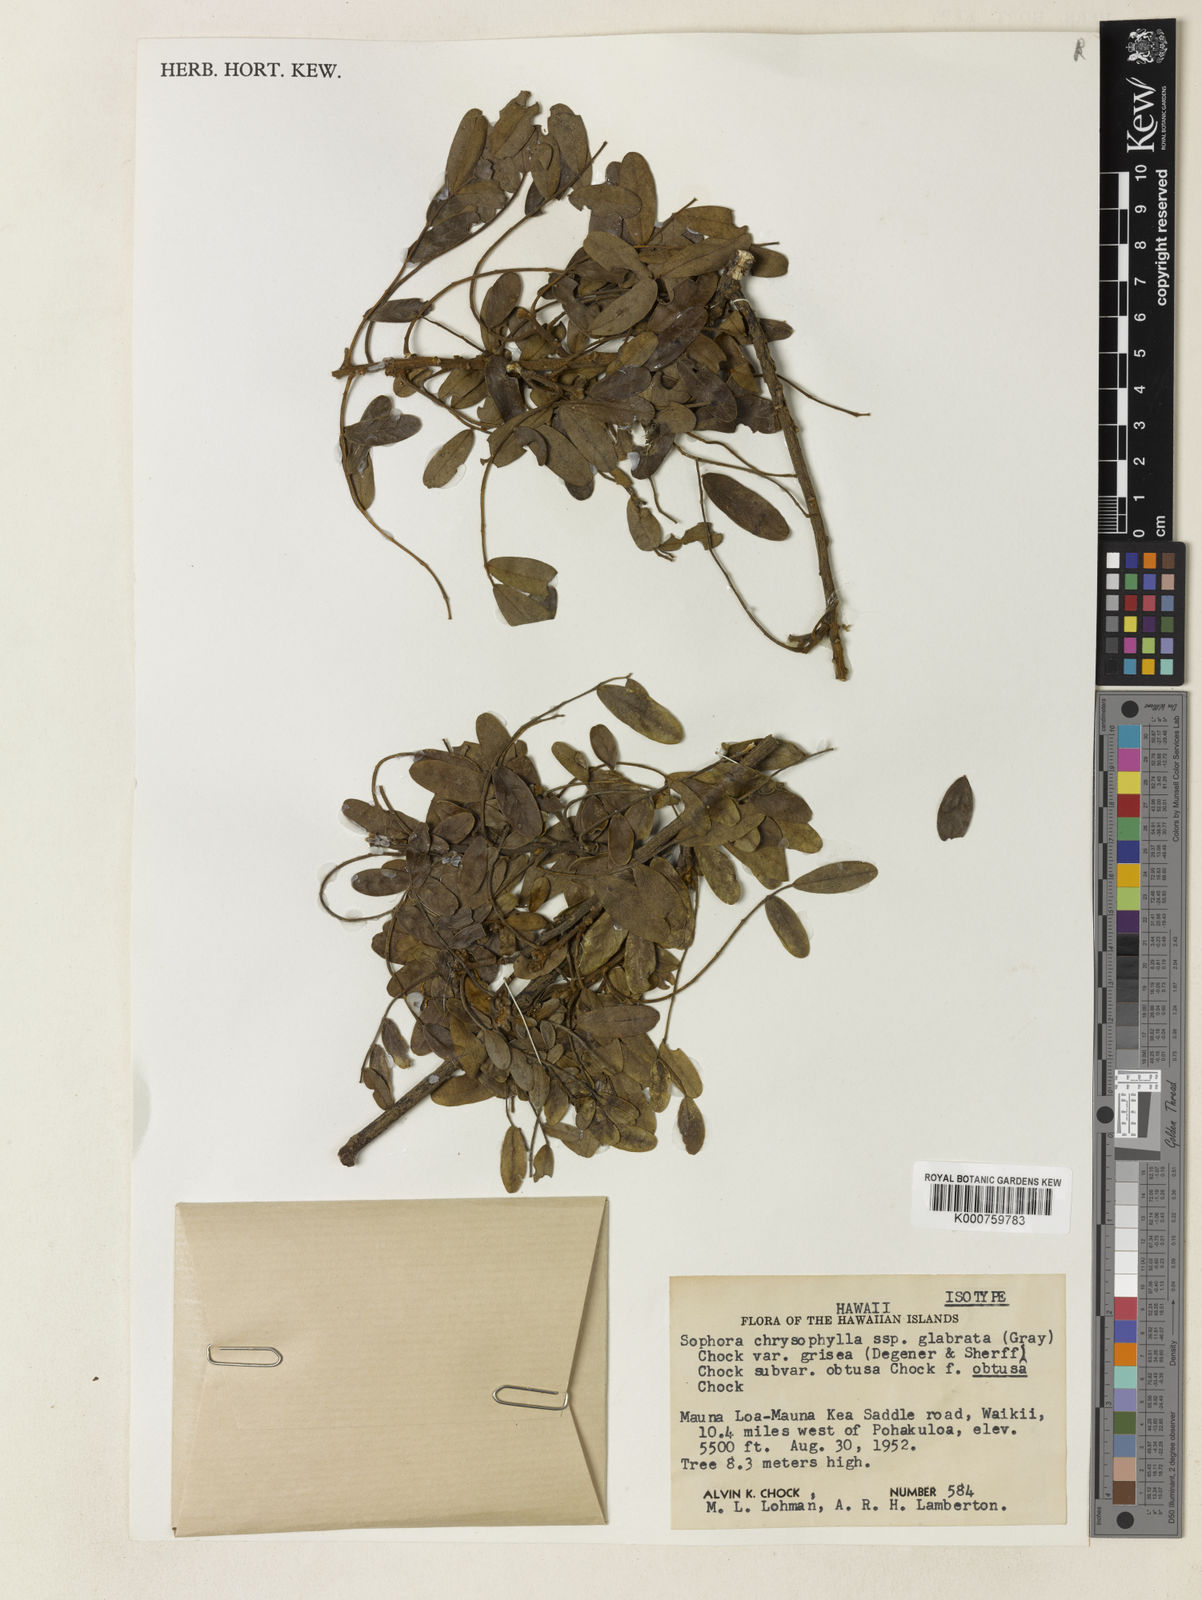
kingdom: Plantae
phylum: Tracheophyta
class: Magnoliopsida
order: Fabales
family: Fabaceae
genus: Sophora
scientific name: Sophora chrysophylla
